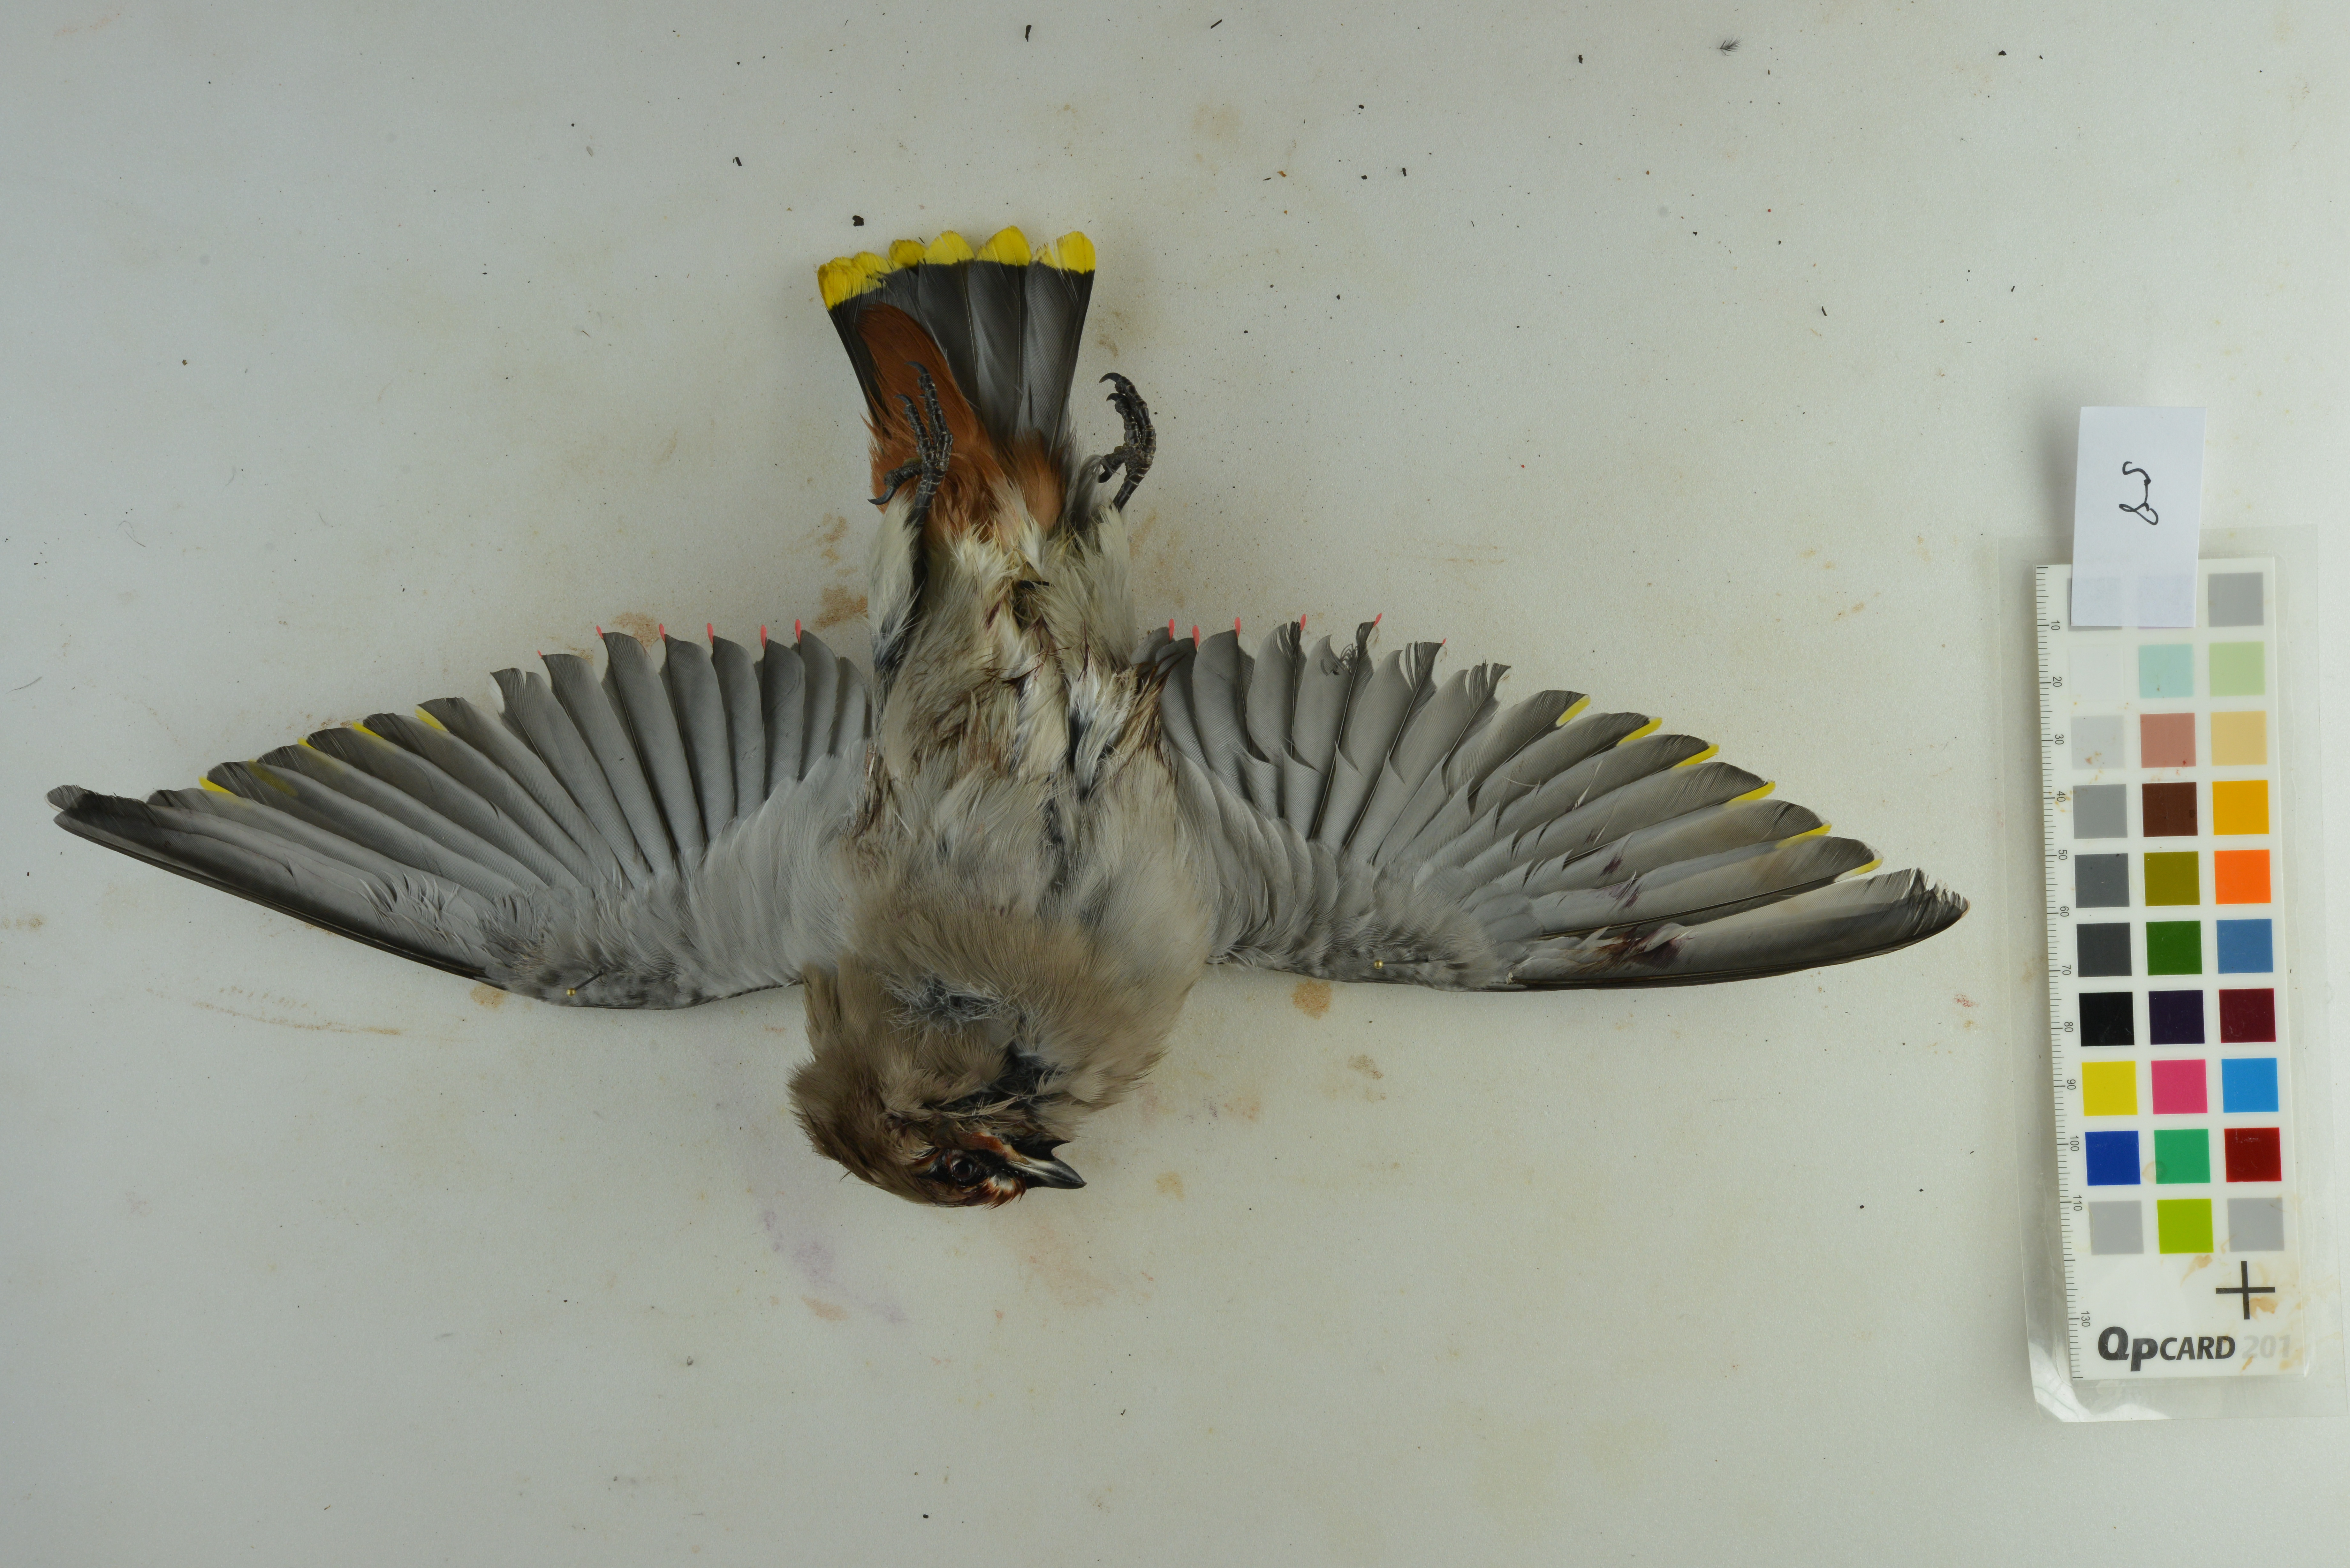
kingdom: Animalia
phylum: Chordata
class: Aves
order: Passeriformes
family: Bombycillidae
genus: Bombycilla
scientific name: Bombycilla garrulus
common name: Bohemian waxwing
